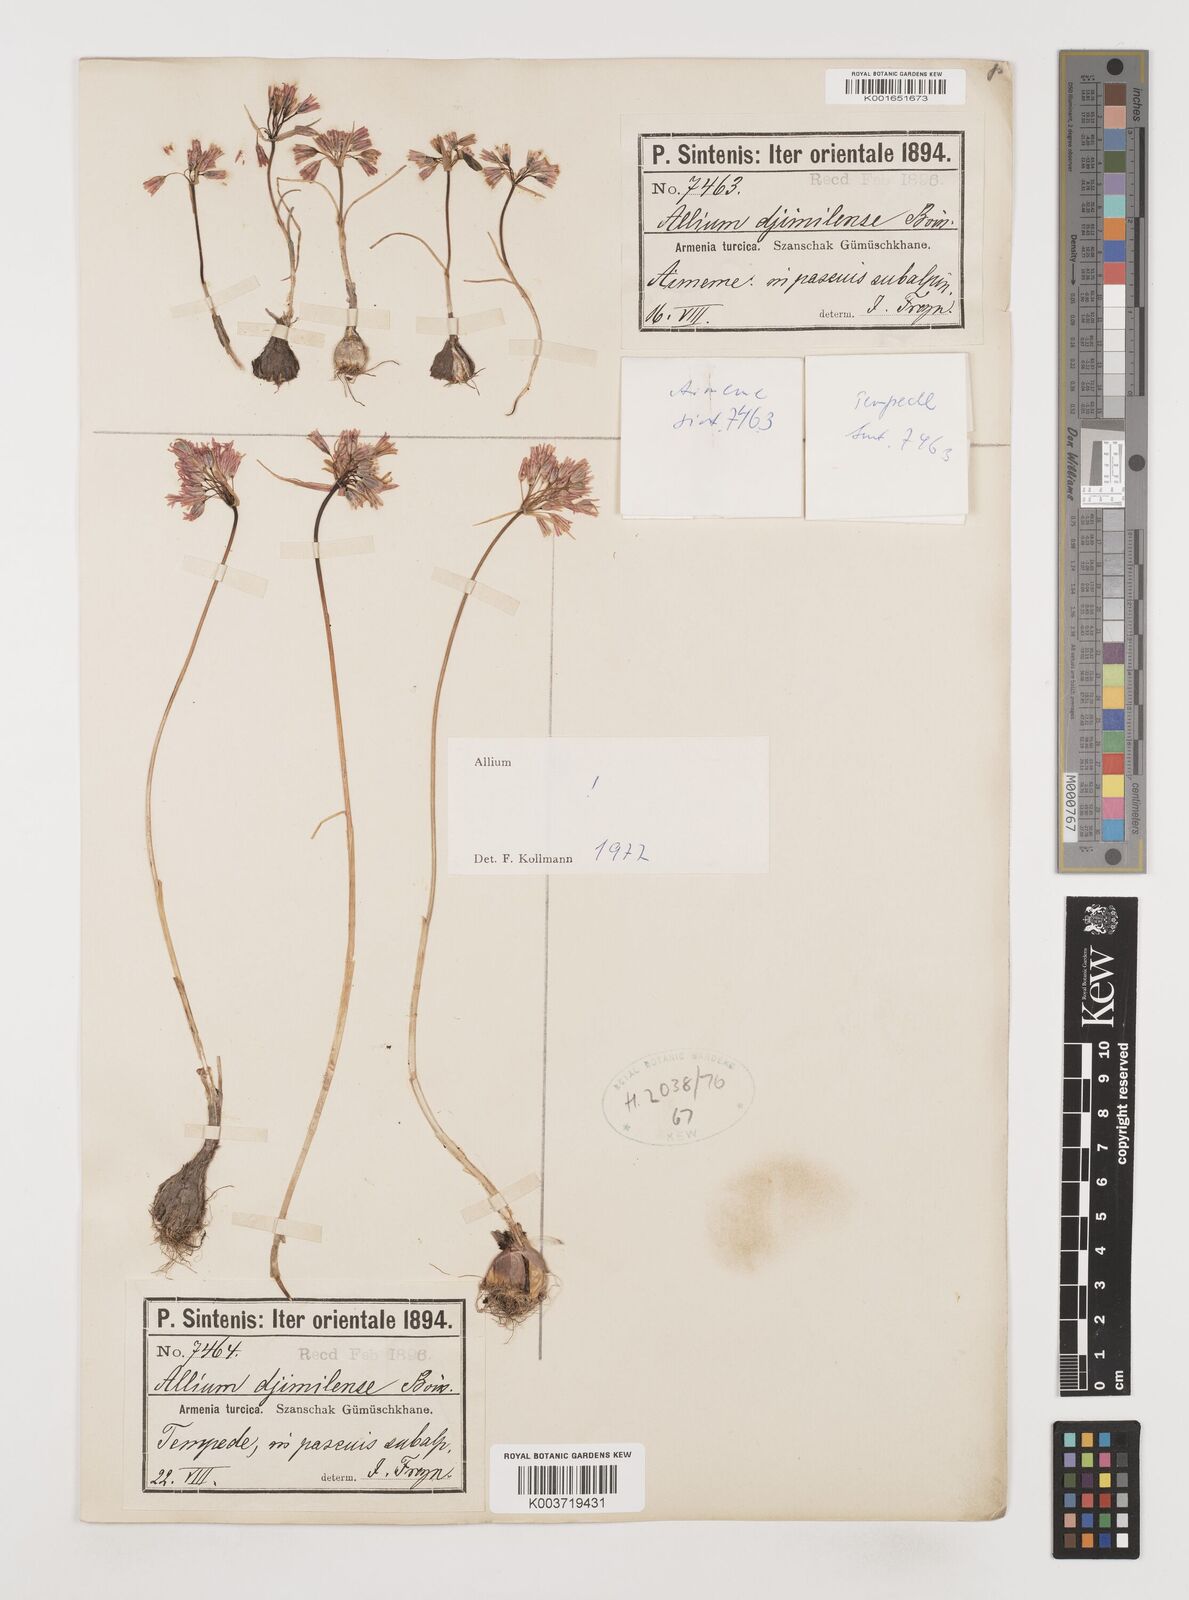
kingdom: Plantae
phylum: Tracheophyta
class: Liliopsida
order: Asparagales
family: Amaryllidaceae
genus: Allium
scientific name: Allium djimilense
